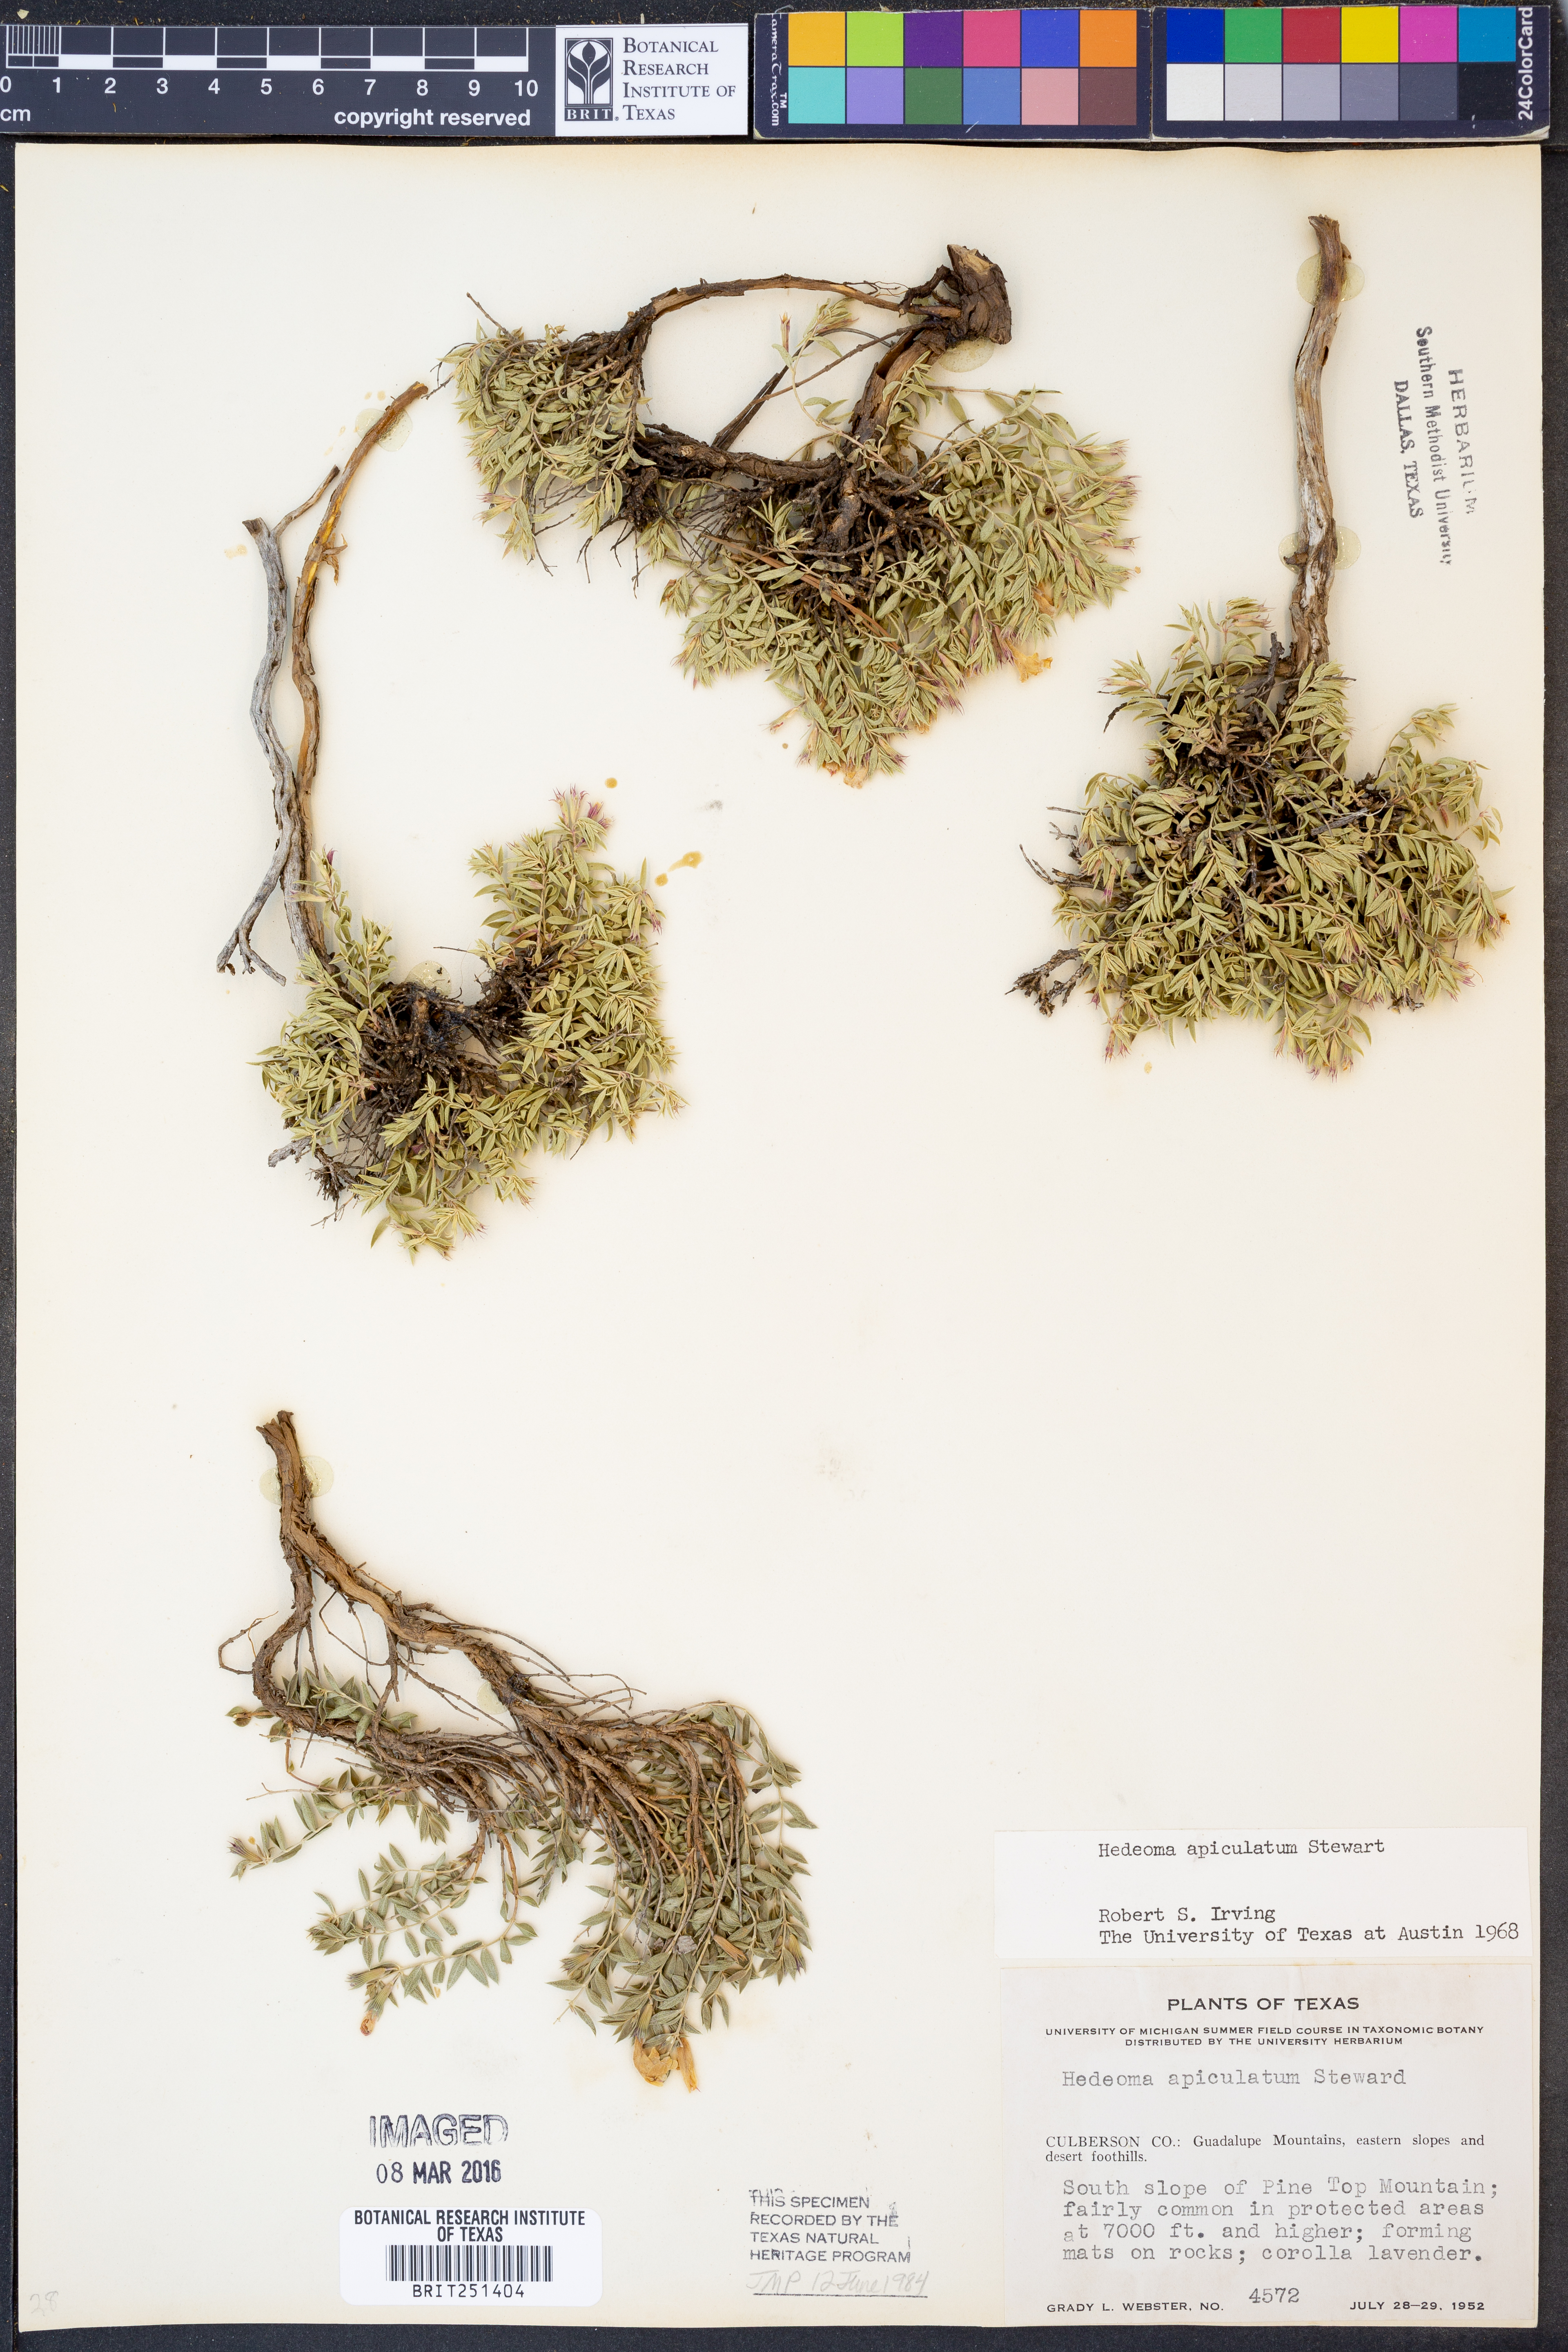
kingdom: Plantae
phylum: Tracheophyta
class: Magnoliopsida
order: Lamiales
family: Lamiaceae
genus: Hedeoma
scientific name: Hedeoma apiculata
